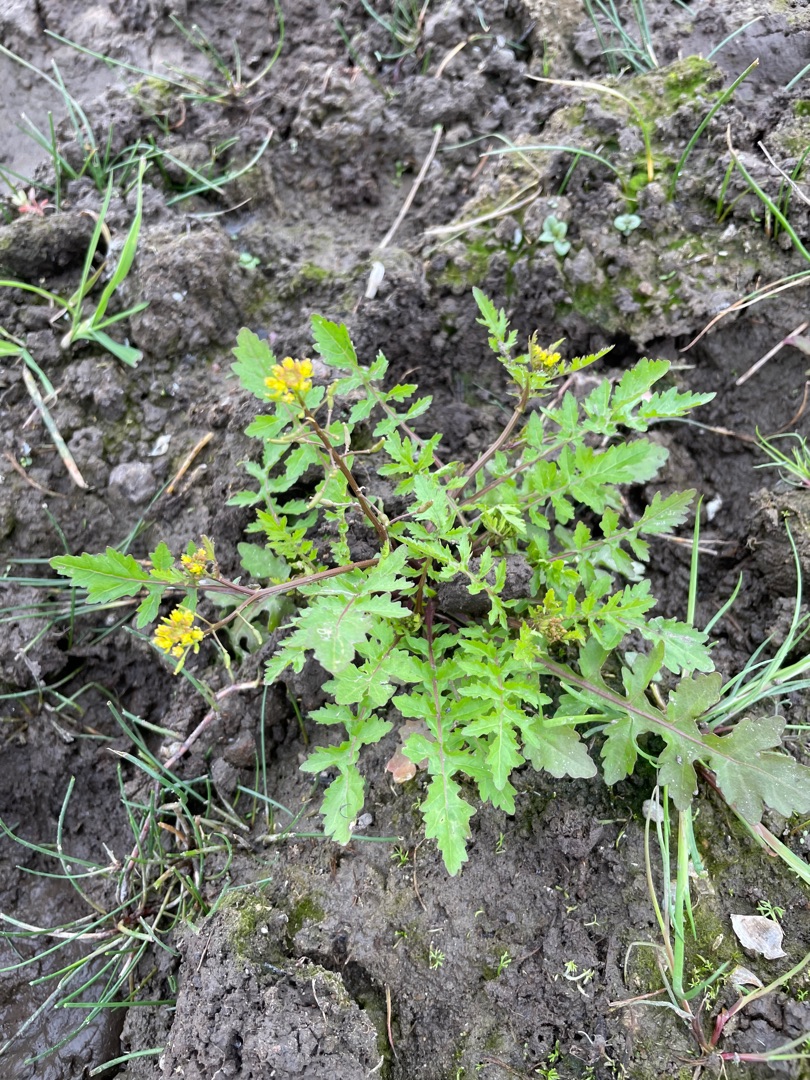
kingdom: Plantae
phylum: Tracheophyta
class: Magnoliopsida
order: Brassicales
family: Brassicaceae
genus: Rorippa
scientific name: Rorippa palustris
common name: Kær-guldkarse
